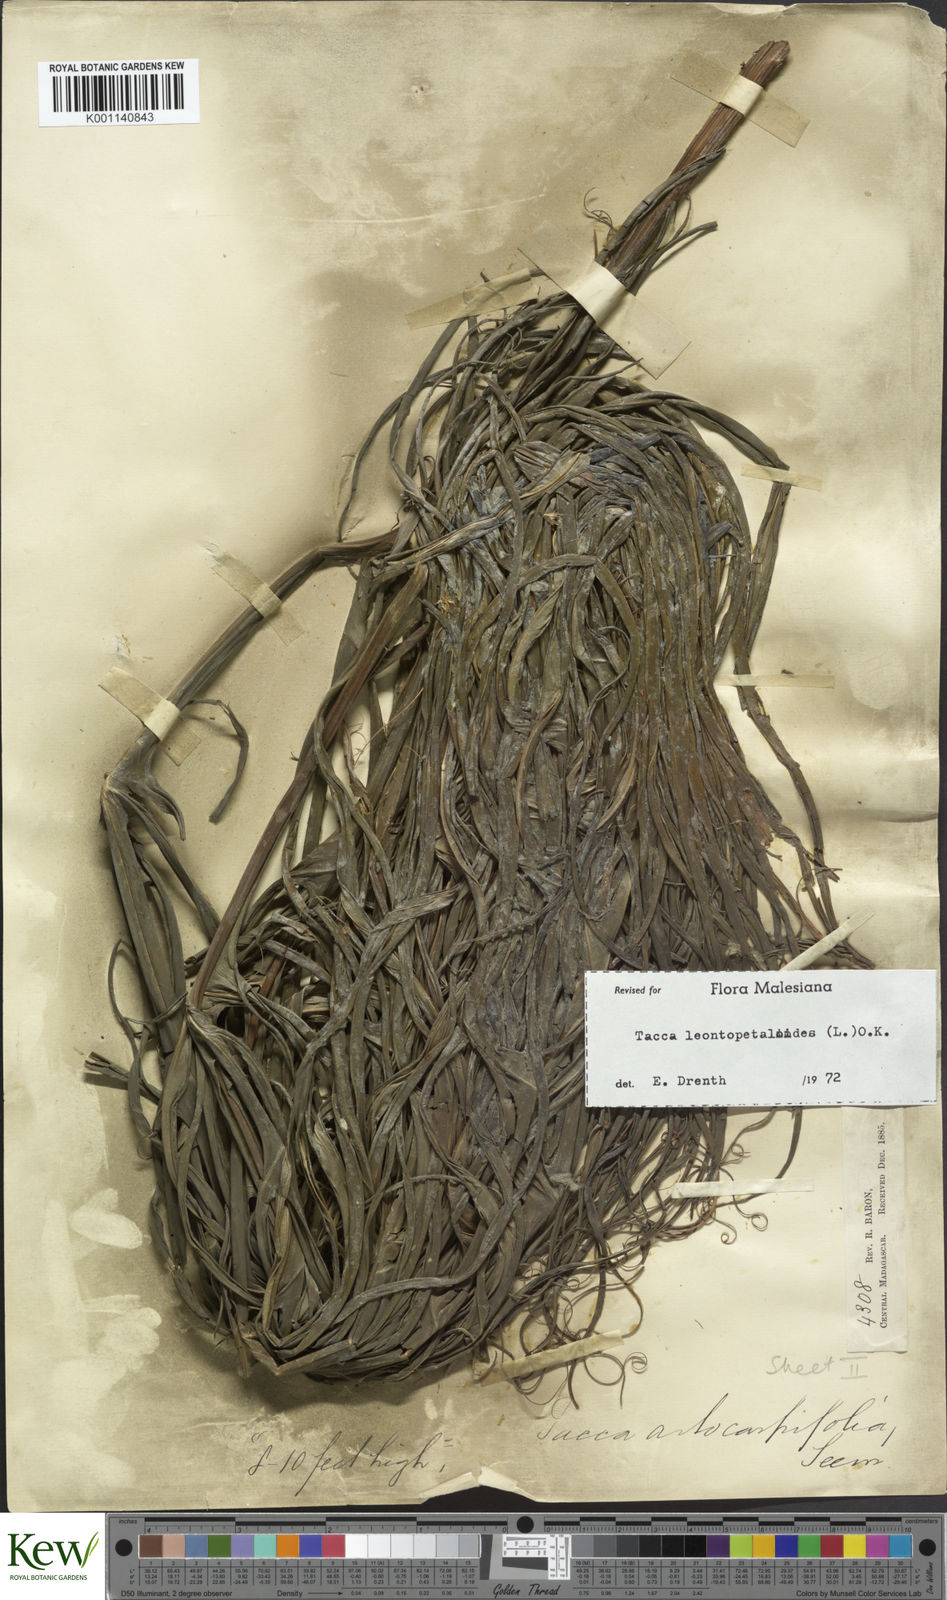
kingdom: Plantae
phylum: Tracheophyta
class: Liliopsida
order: Dioscoreales
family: Dioscoreaceae
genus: Tacca
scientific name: Tacca leontopetaloides
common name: Arrowroot
